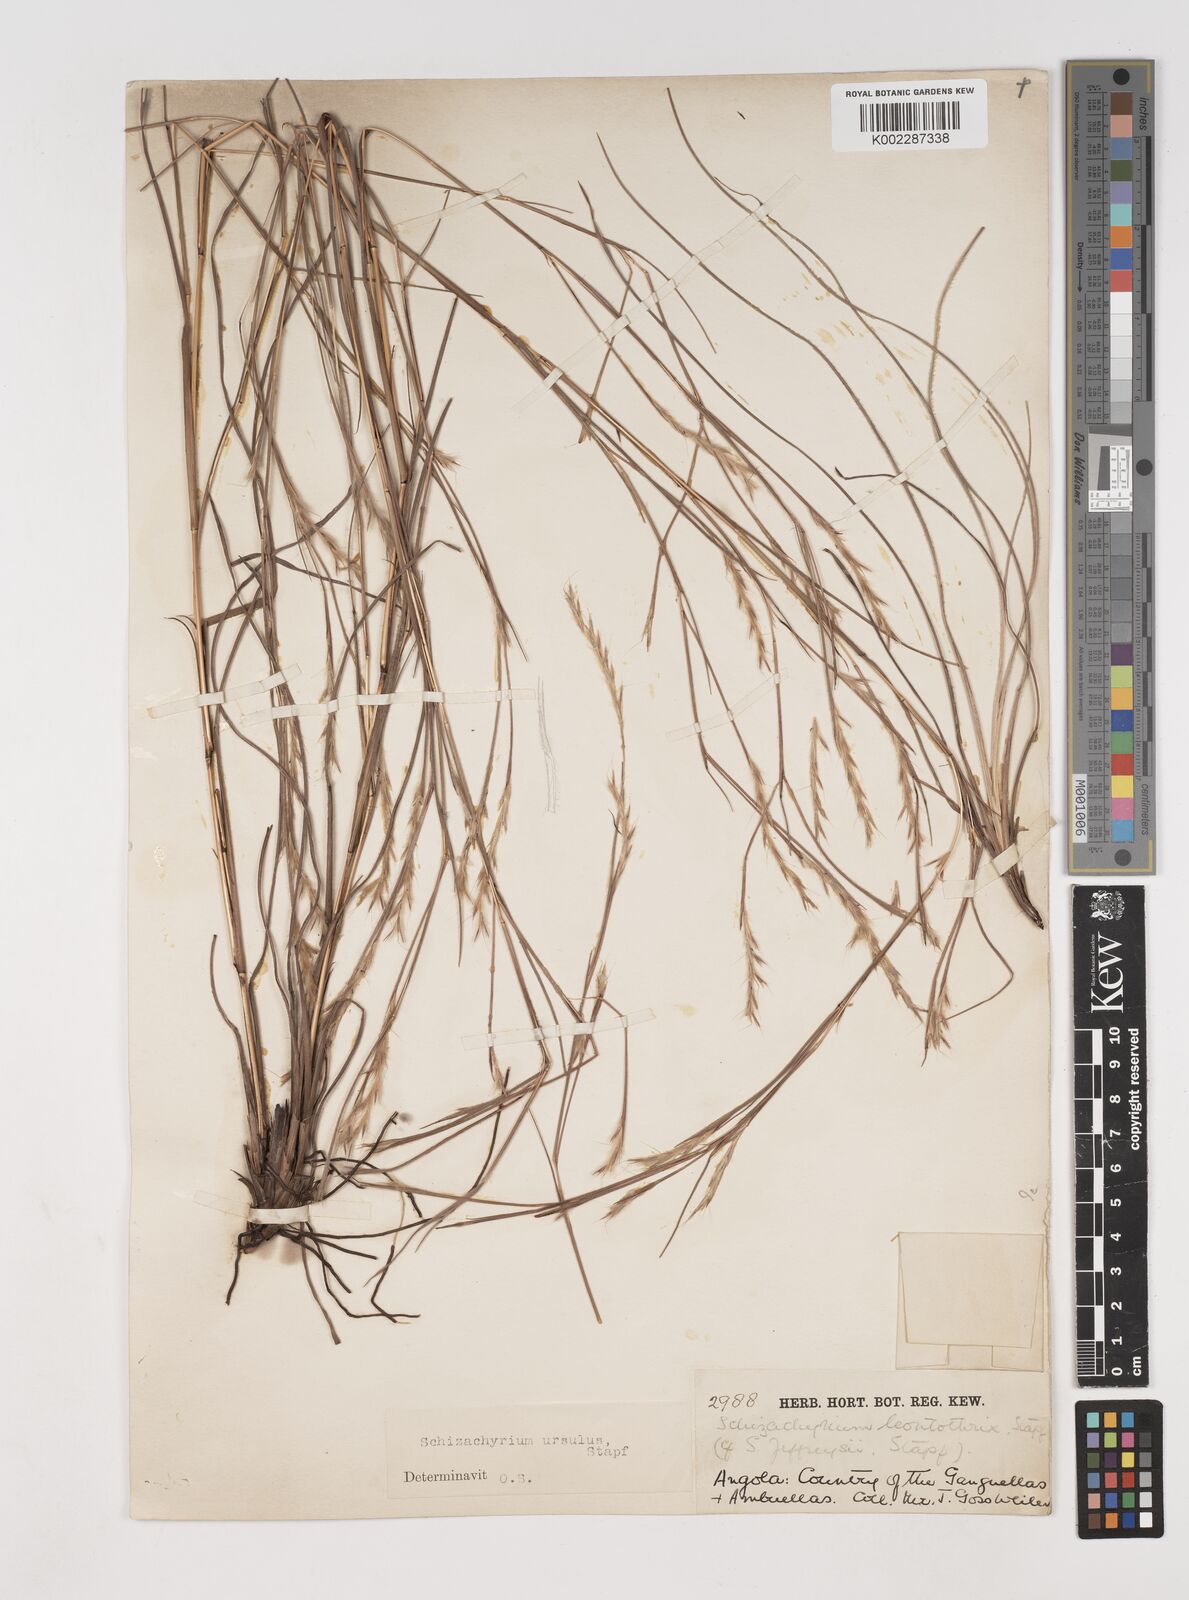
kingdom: Plantae
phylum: Tracheophyta
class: Liliopsida
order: Poales
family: Poaceae
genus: Andropogon
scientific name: Andropogon schweinfurthii
